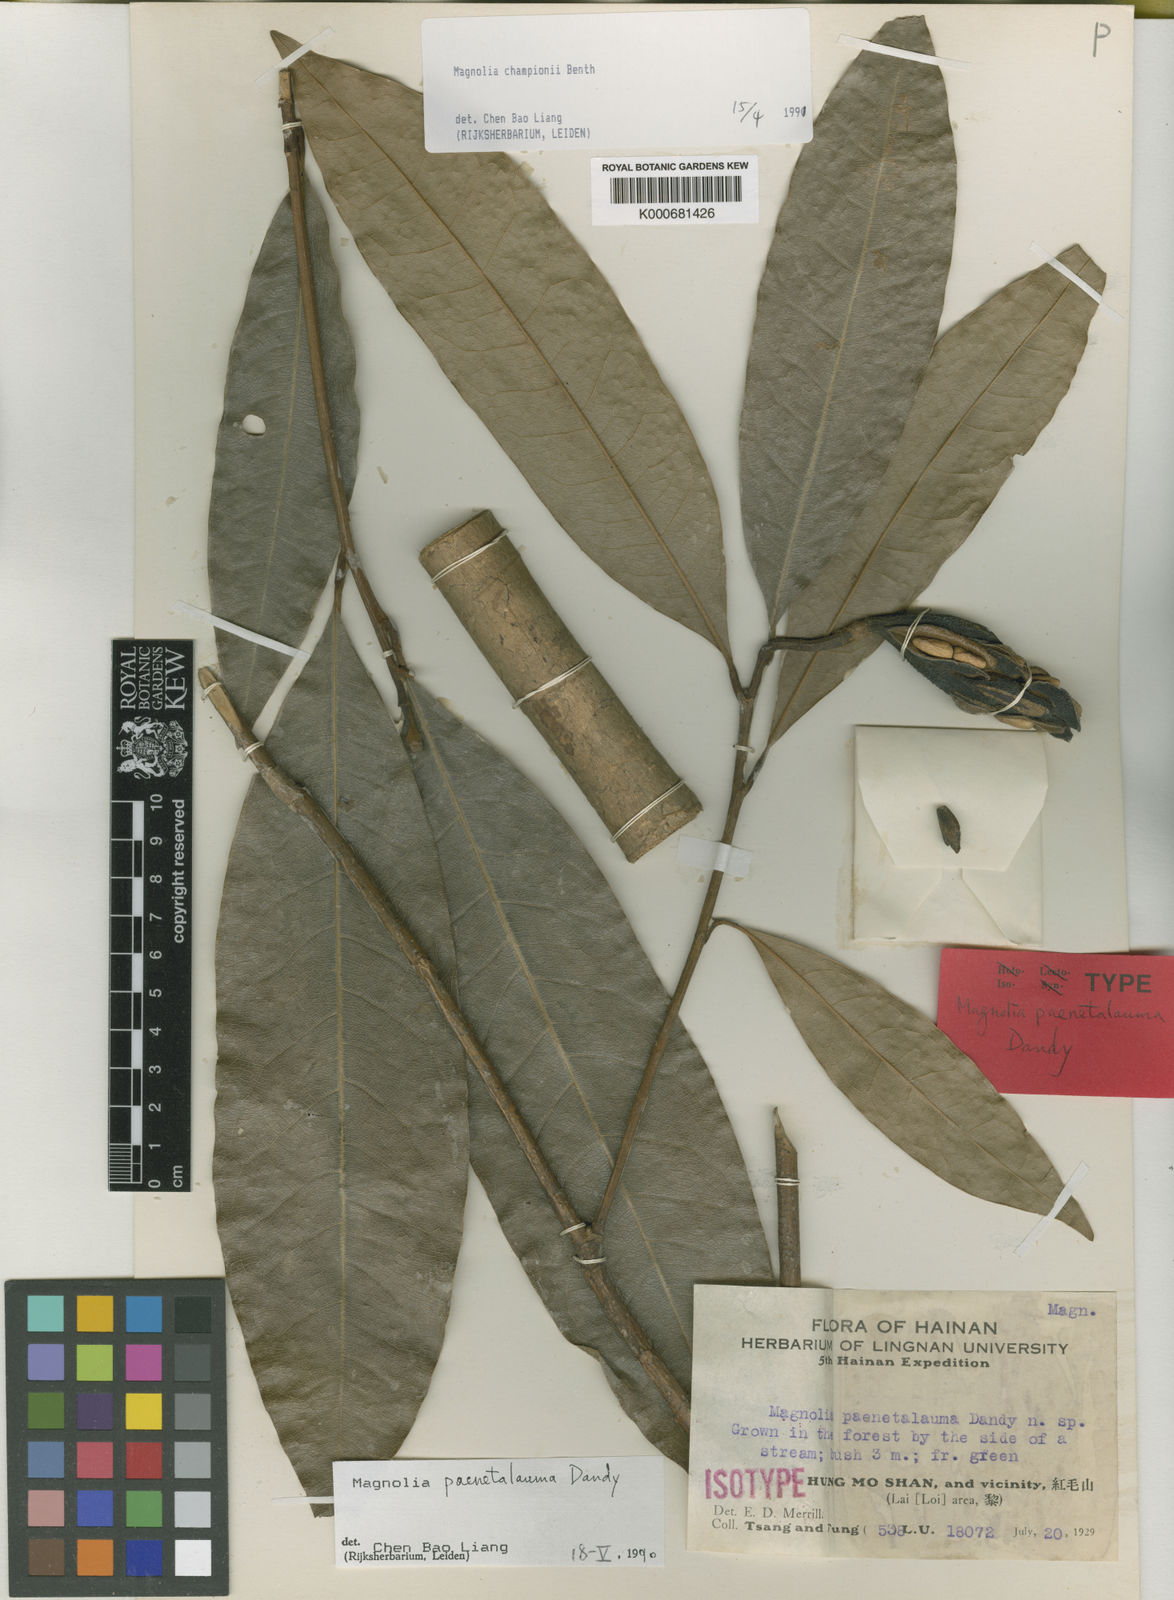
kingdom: Plantae
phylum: Tracheophyta
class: Magnoliopsida
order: Magnoliales
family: Magnoliaceae
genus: Magnolia
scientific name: Magnolia championii
